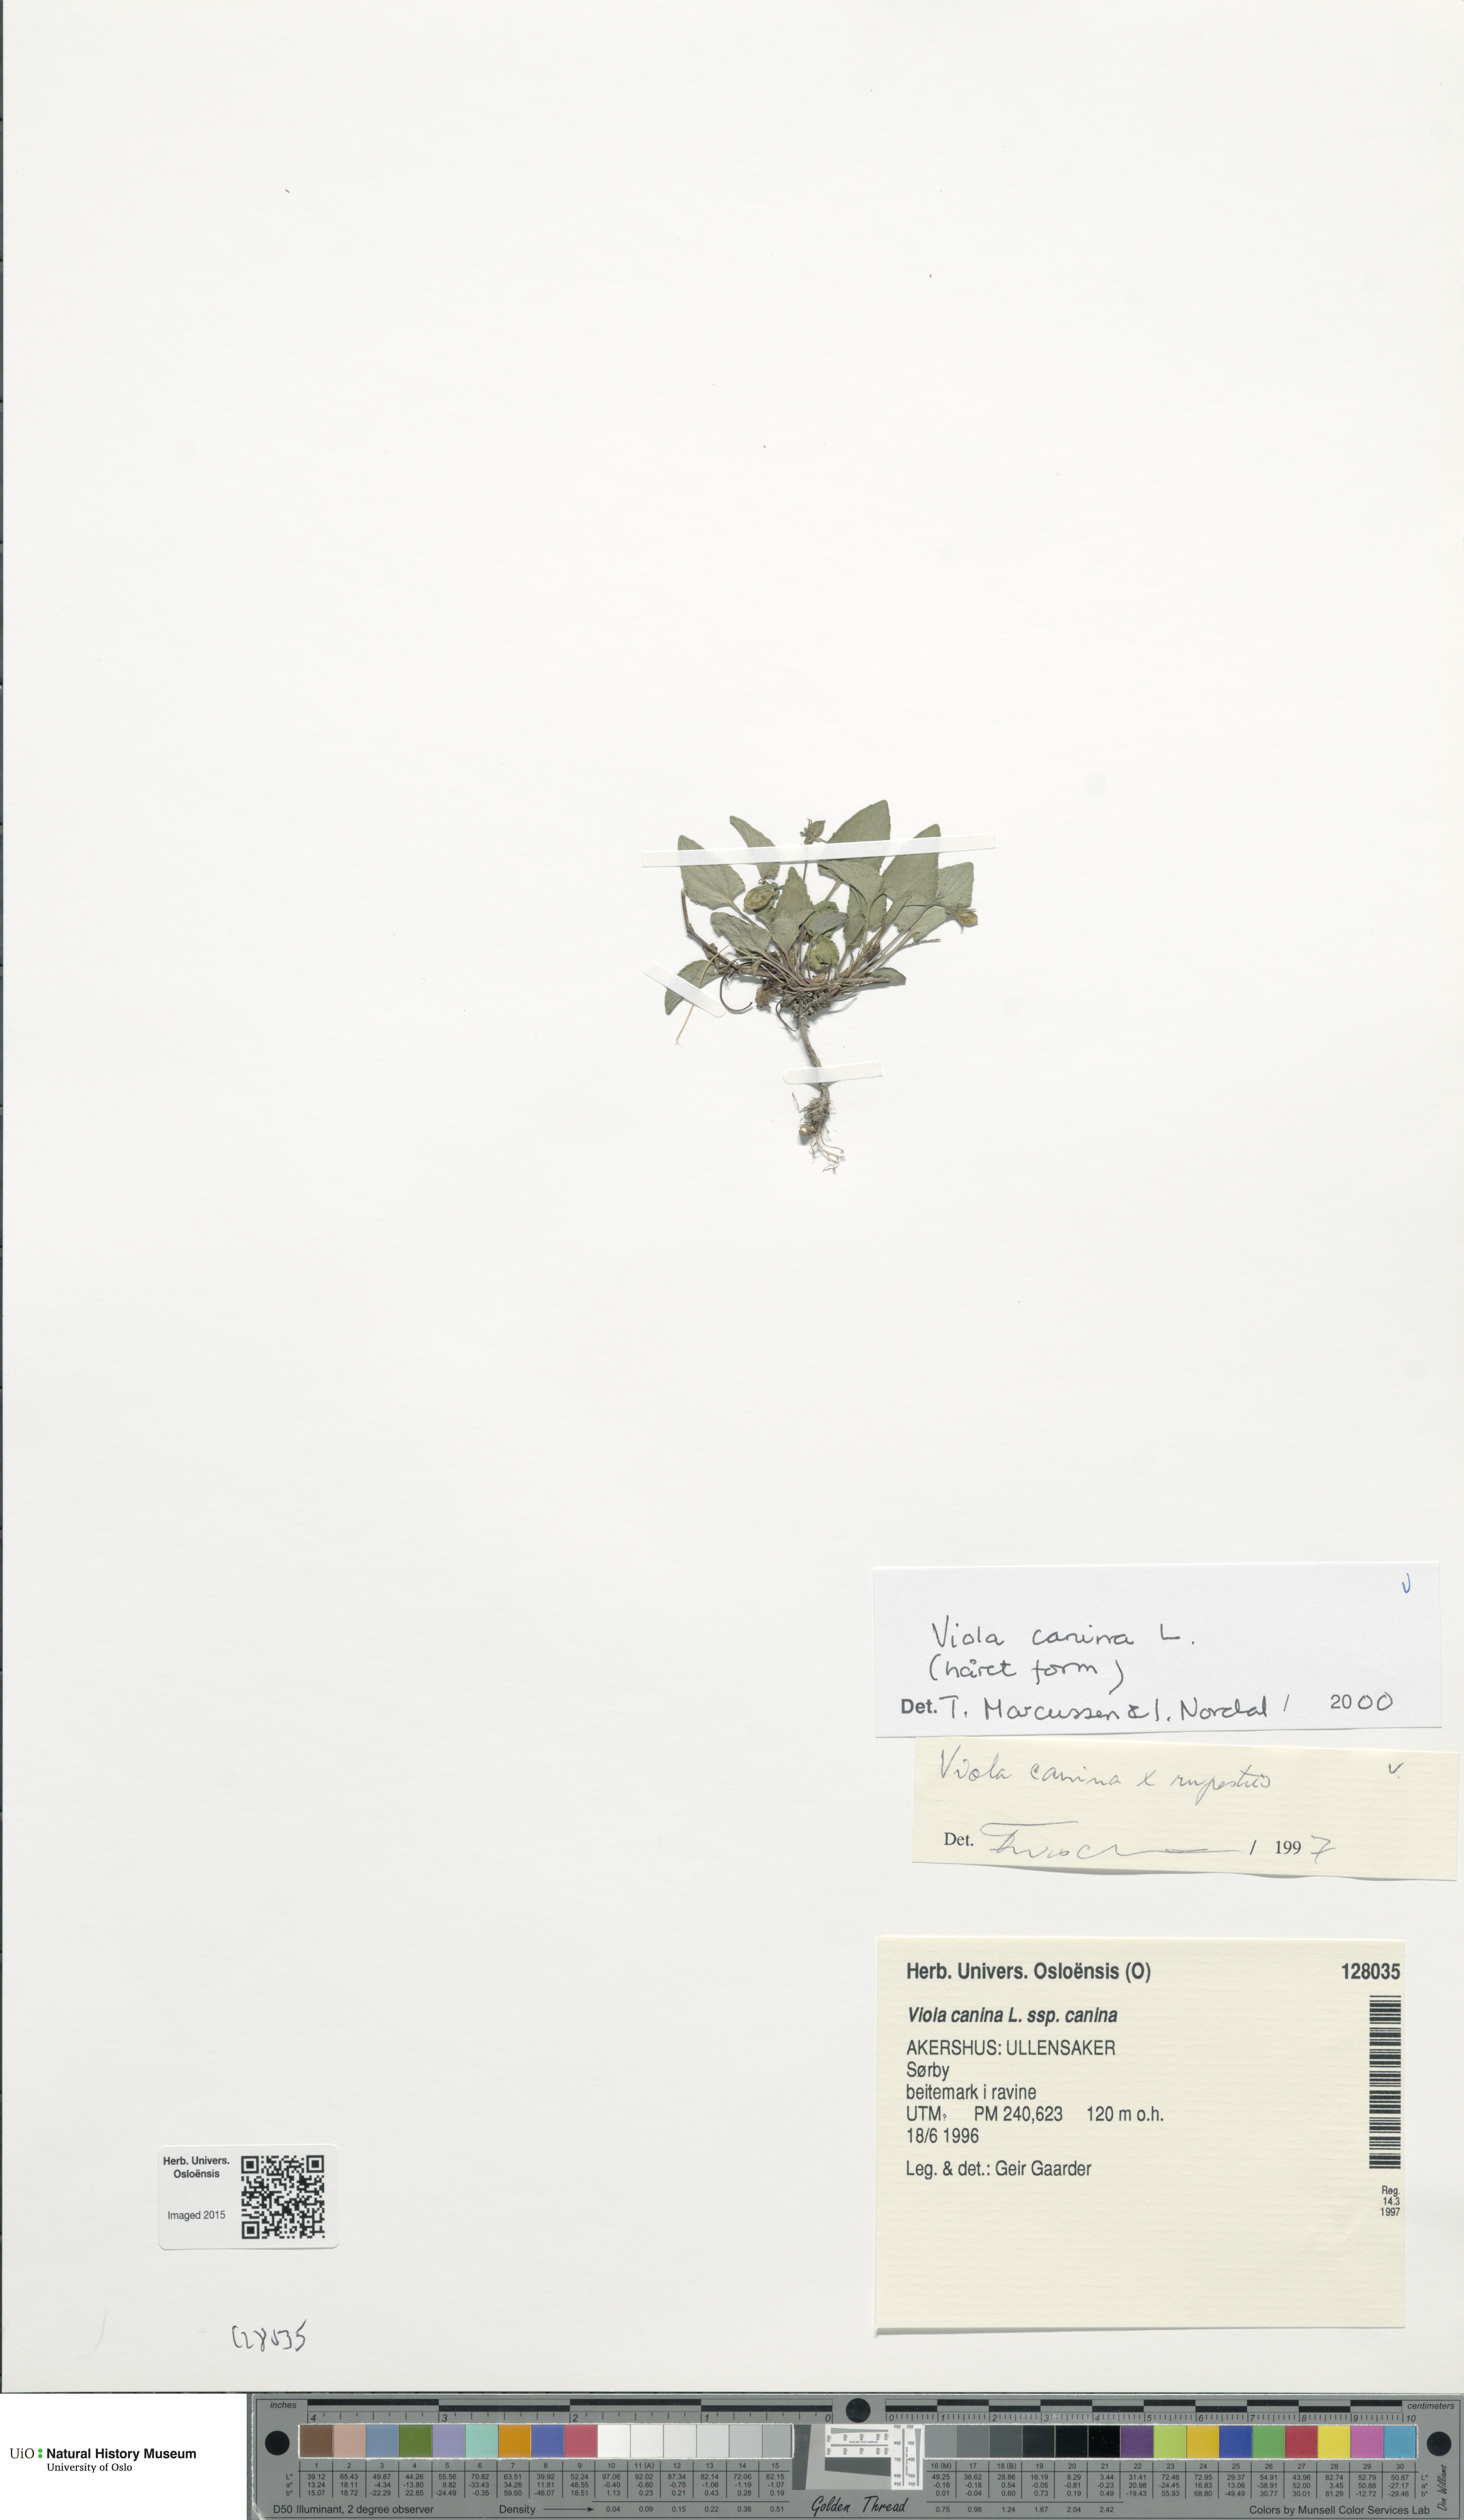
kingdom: Plantae
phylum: Tracheophyta
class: Magnoliopsida
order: Malpighiales
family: Violaceae
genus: Viola
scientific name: Viola canina
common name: Heath dog-violet
